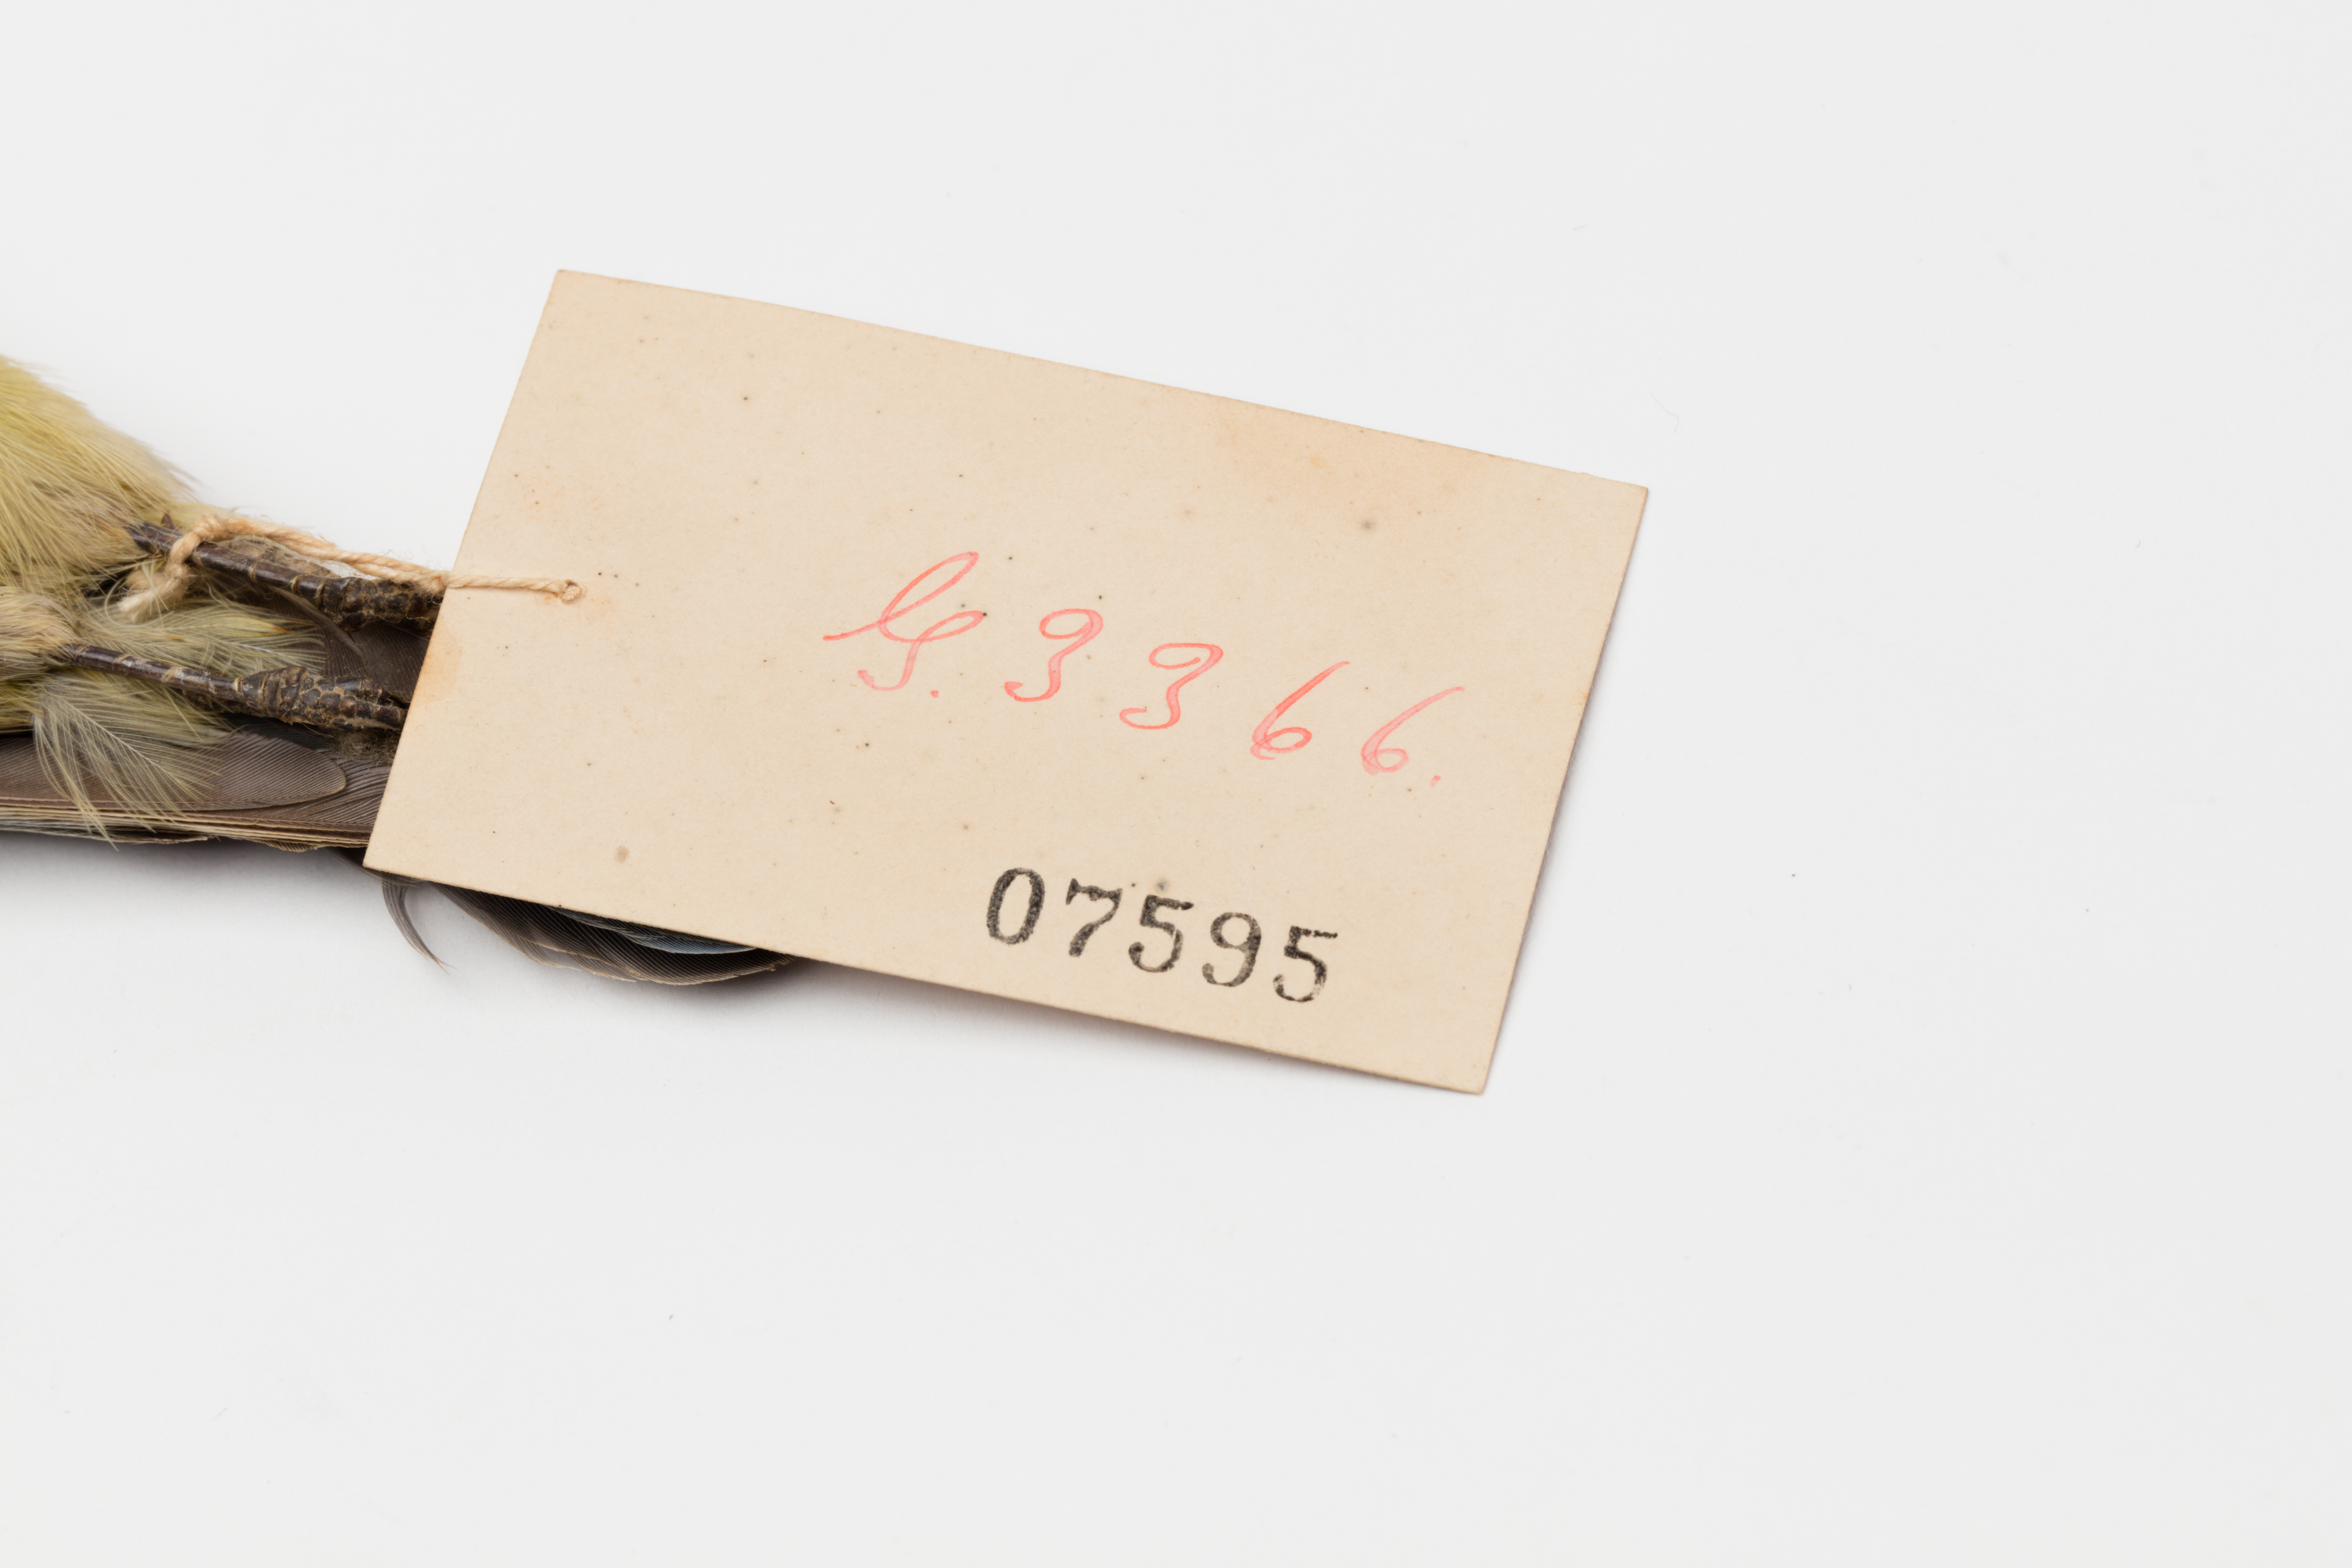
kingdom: Animalia
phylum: Chordata
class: Aves
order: Passeriformes
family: Paridae
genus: Cyanistes
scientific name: Cyanistes caeruleus
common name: Eurasian blue tit
